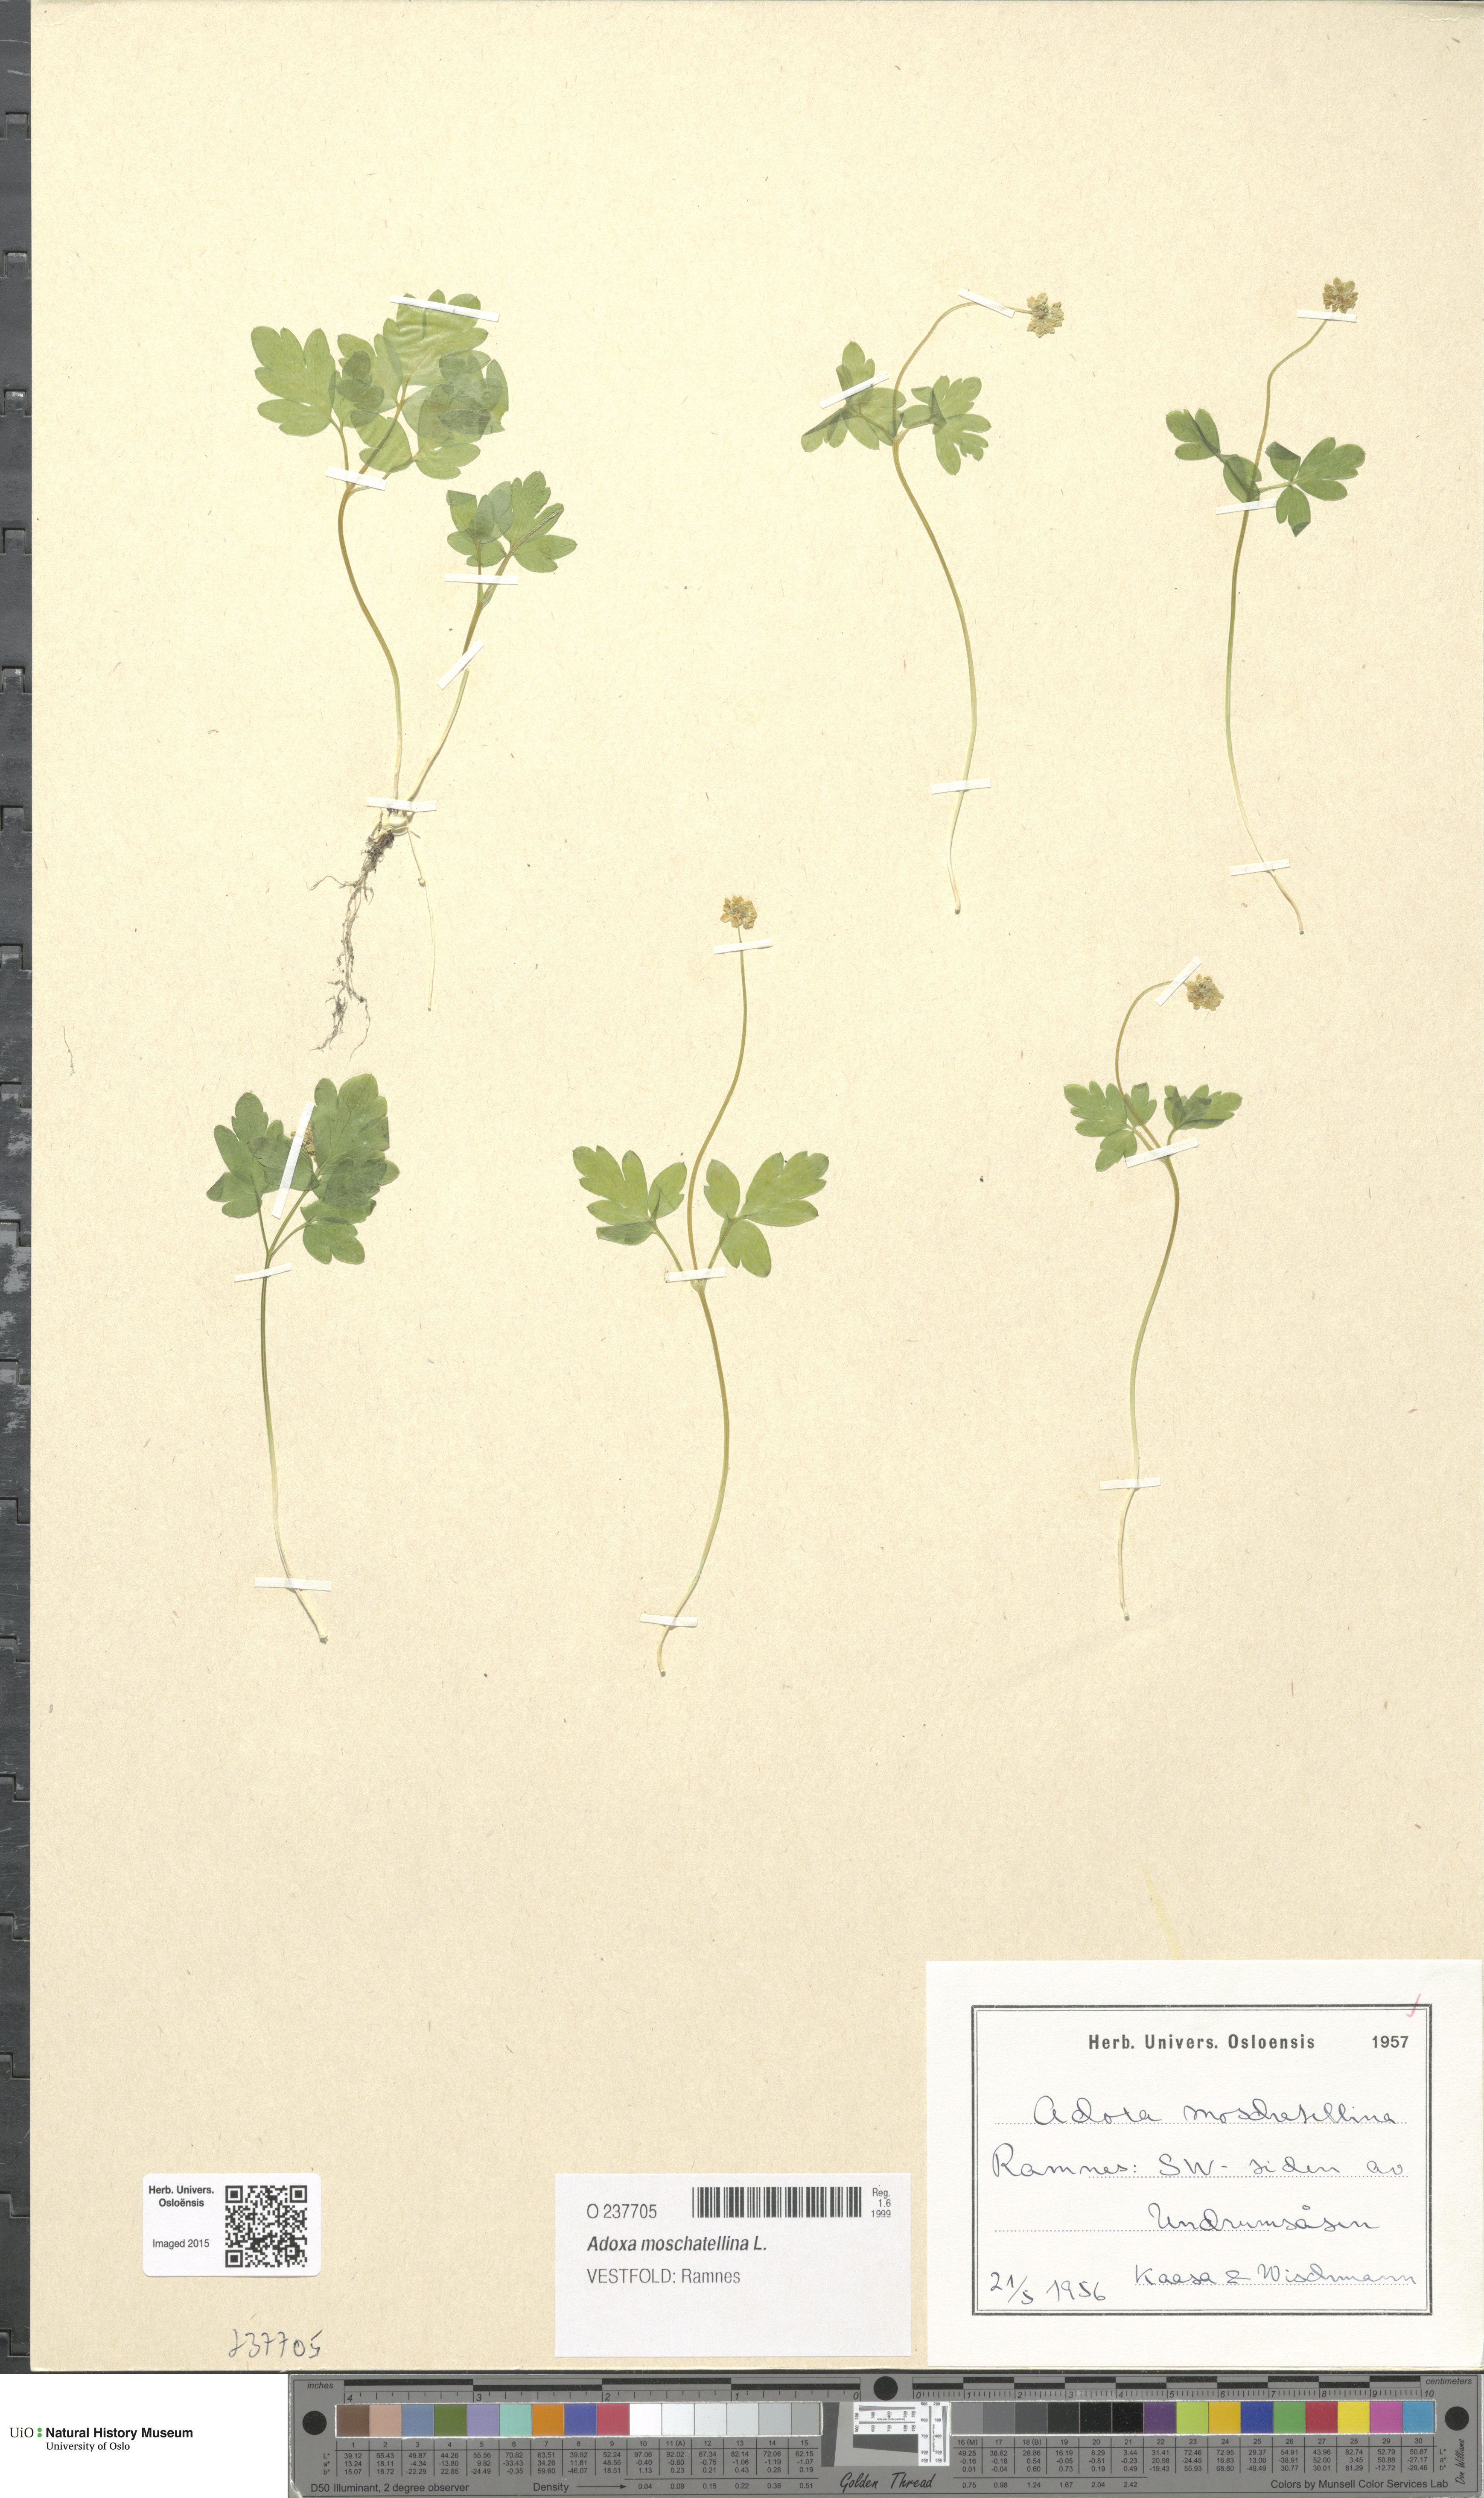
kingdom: Plantae
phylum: Tracheophyta
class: Magnoliopsida
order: Dipsacales
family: Viburnaceae
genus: Adoxa
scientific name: Adoxa moschatellina
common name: Moschatel
